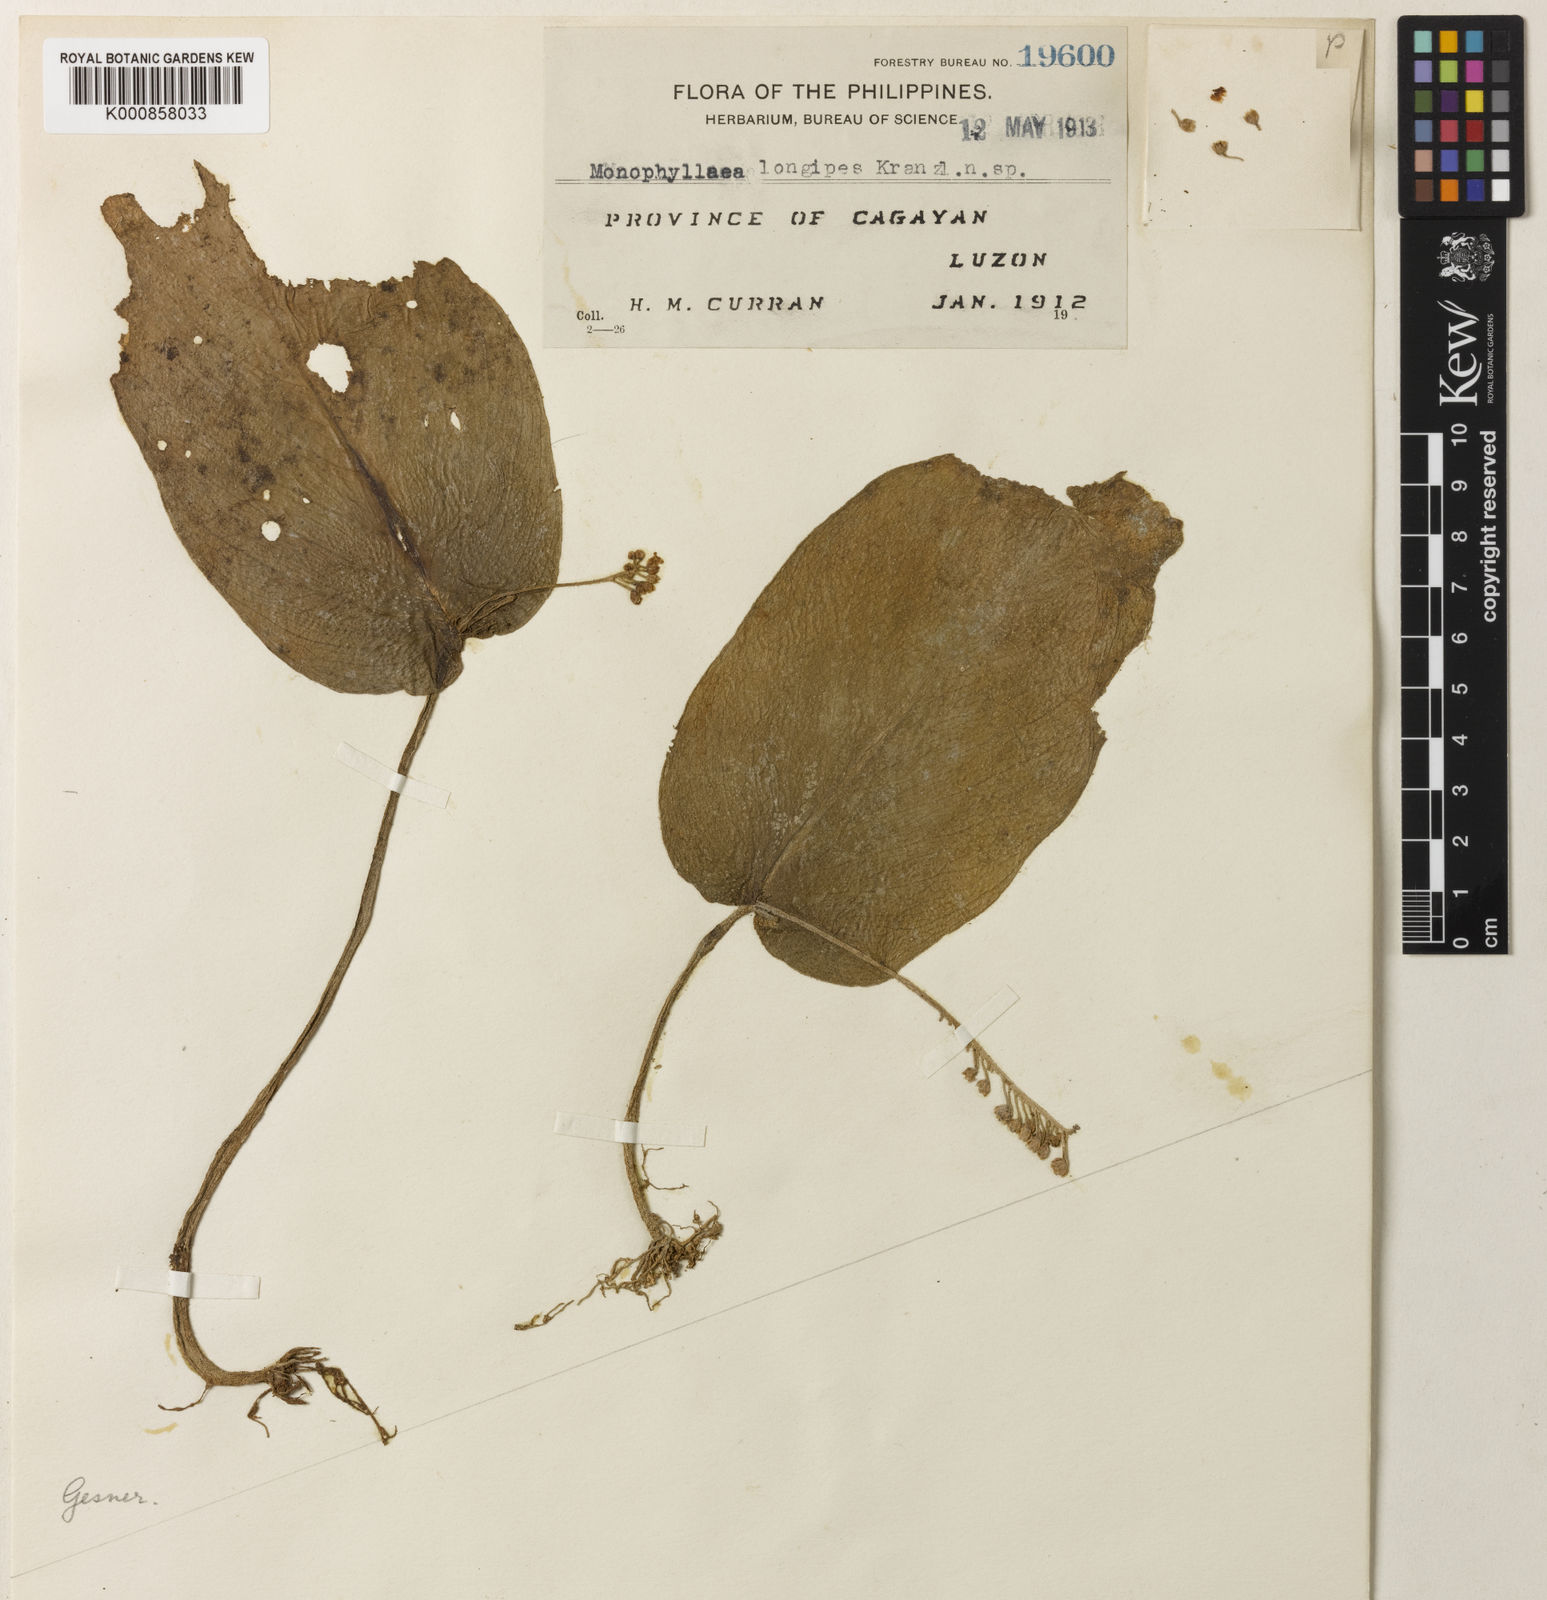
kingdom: Plantae
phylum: Tracheophyta
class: Magnoliopsida
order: Lamiales
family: Gesneriaceae
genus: Monophyllaea
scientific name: Monophyllaea longipes
